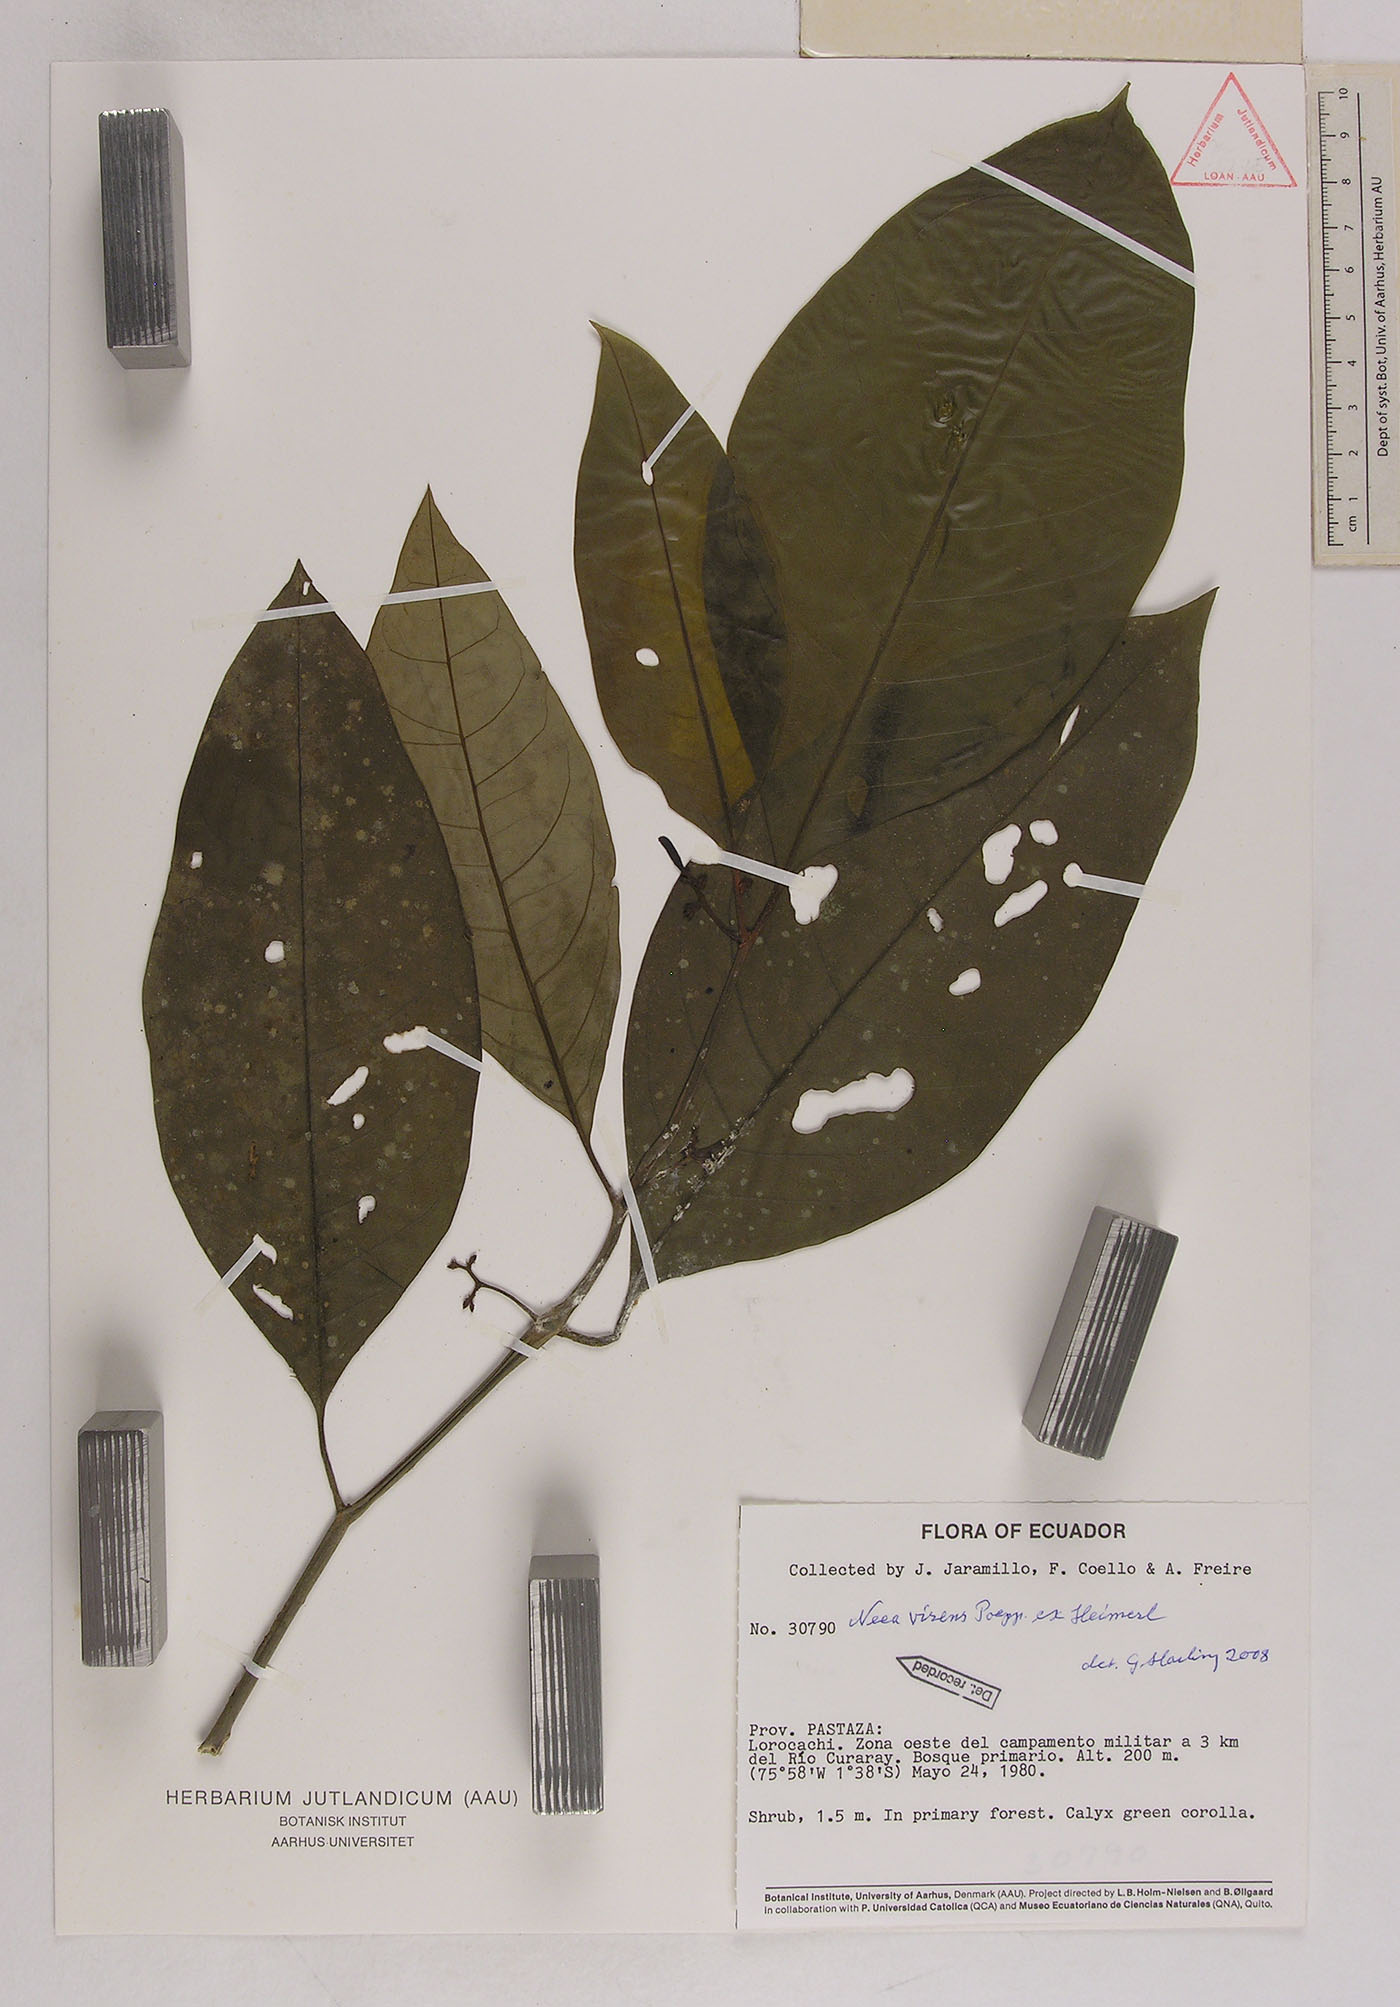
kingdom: Plantae
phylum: Tracheophyta
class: Magnoliopsida
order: Caryophyllales
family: Nyctaginaceae
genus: Neea
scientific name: Neea virens
